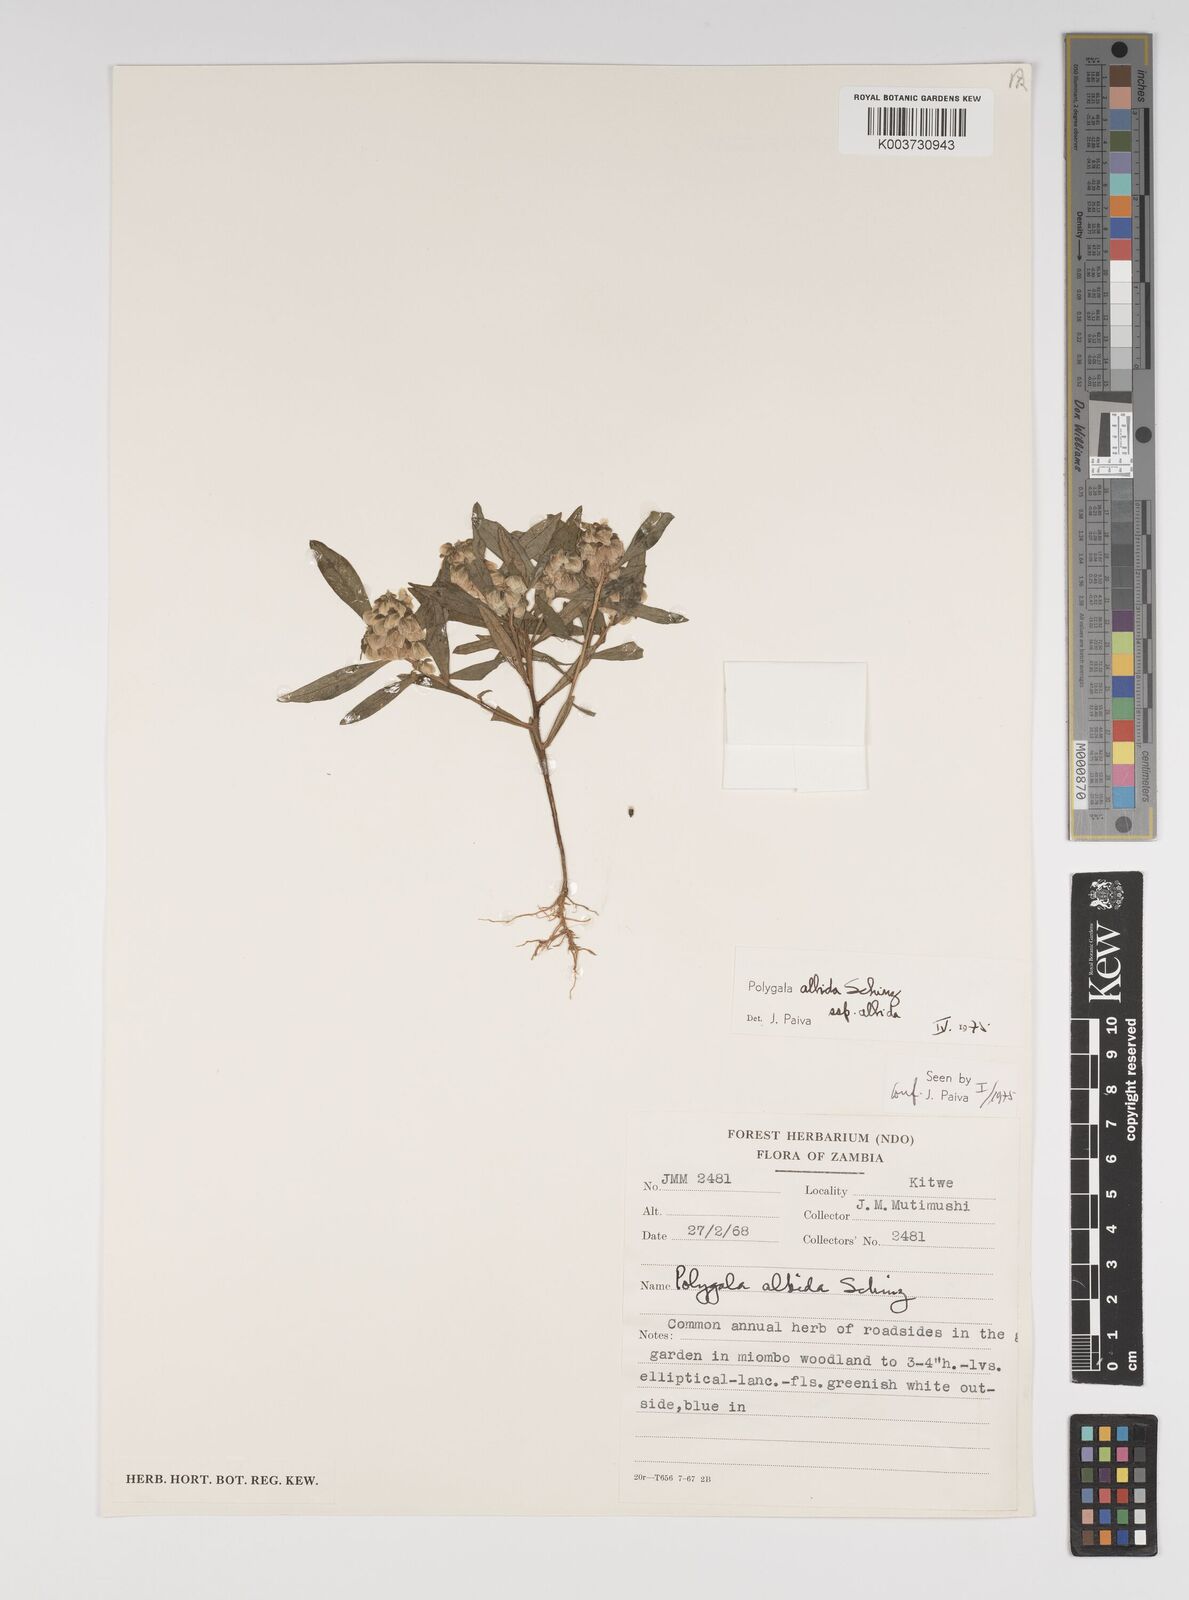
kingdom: Plantae
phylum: Tracheophyta
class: Magnoliopsida
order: Fabales
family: Polygalaceae
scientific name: Polygalaceae
